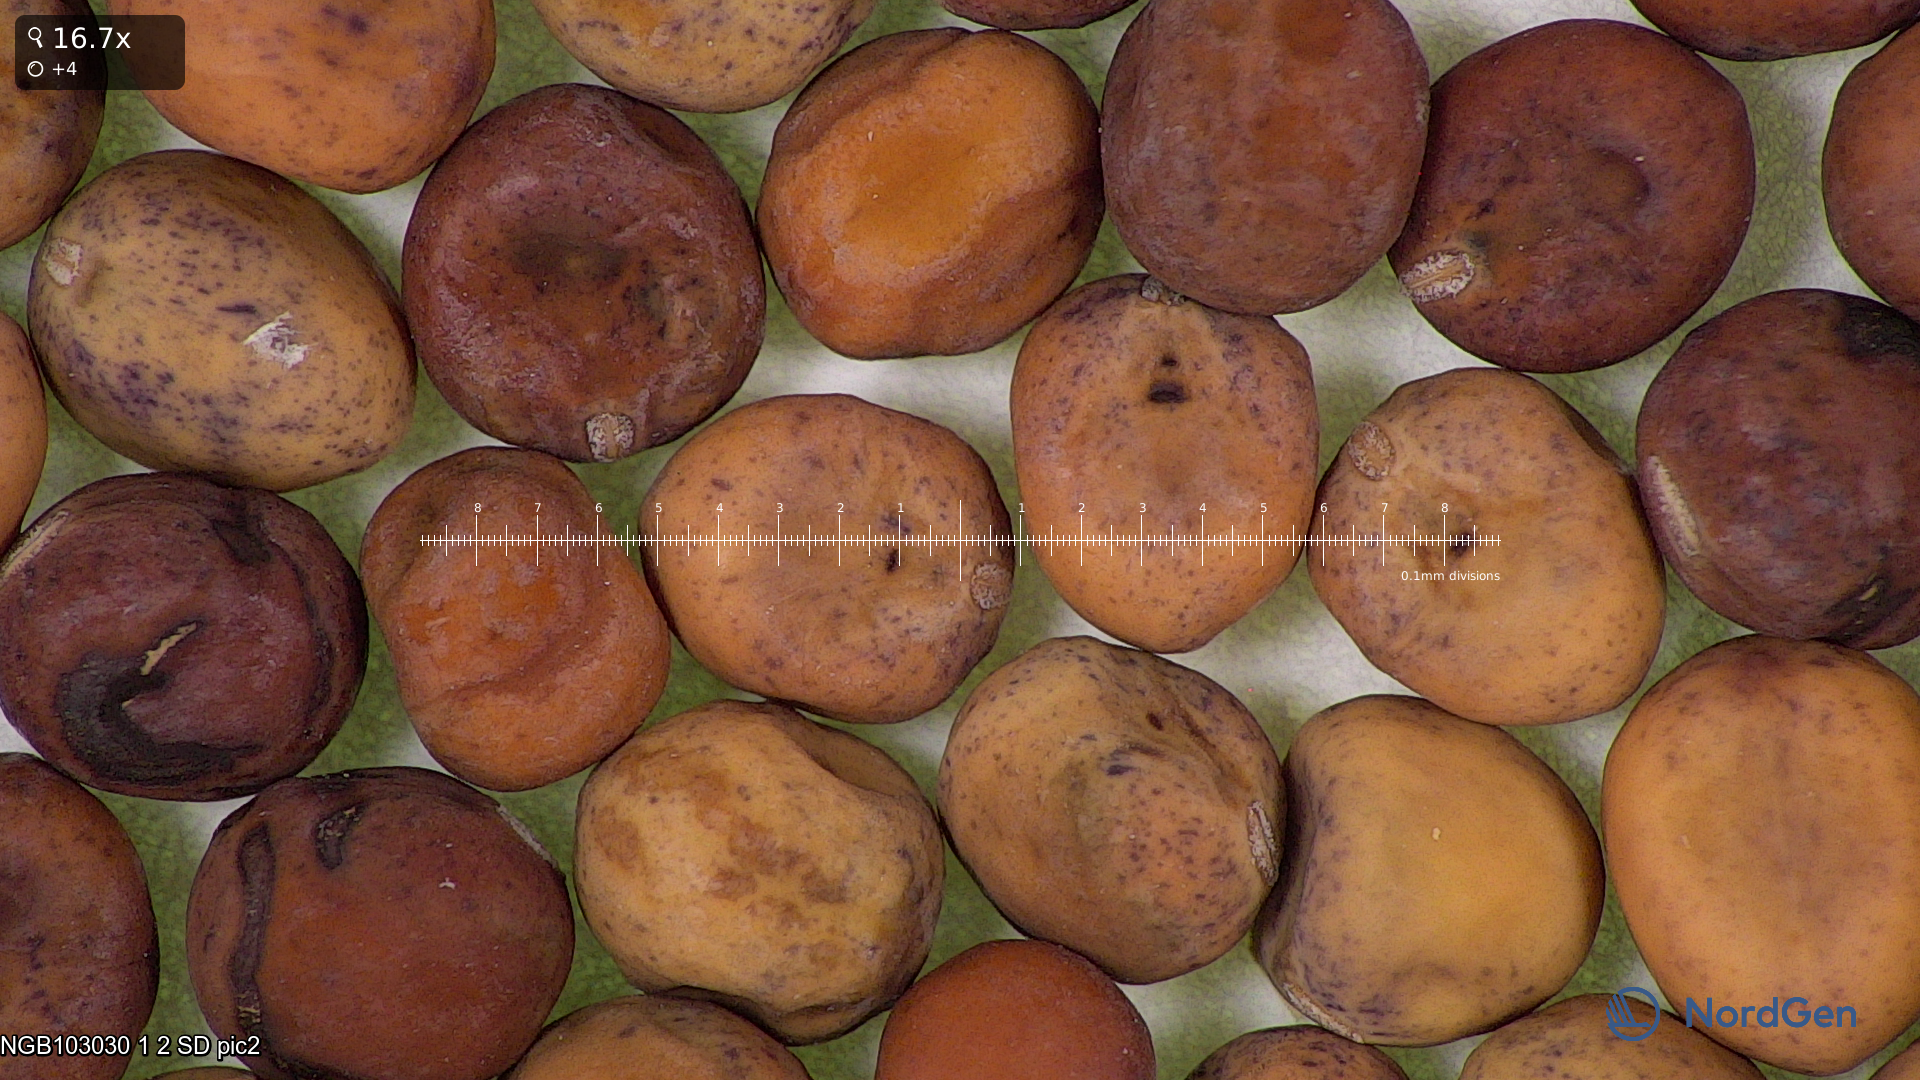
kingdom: Plantae
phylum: Tracheophyta
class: Magnoliopsida
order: Fabales
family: Fabaceae
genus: Lathyrus
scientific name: Lathyrus oleraceus
